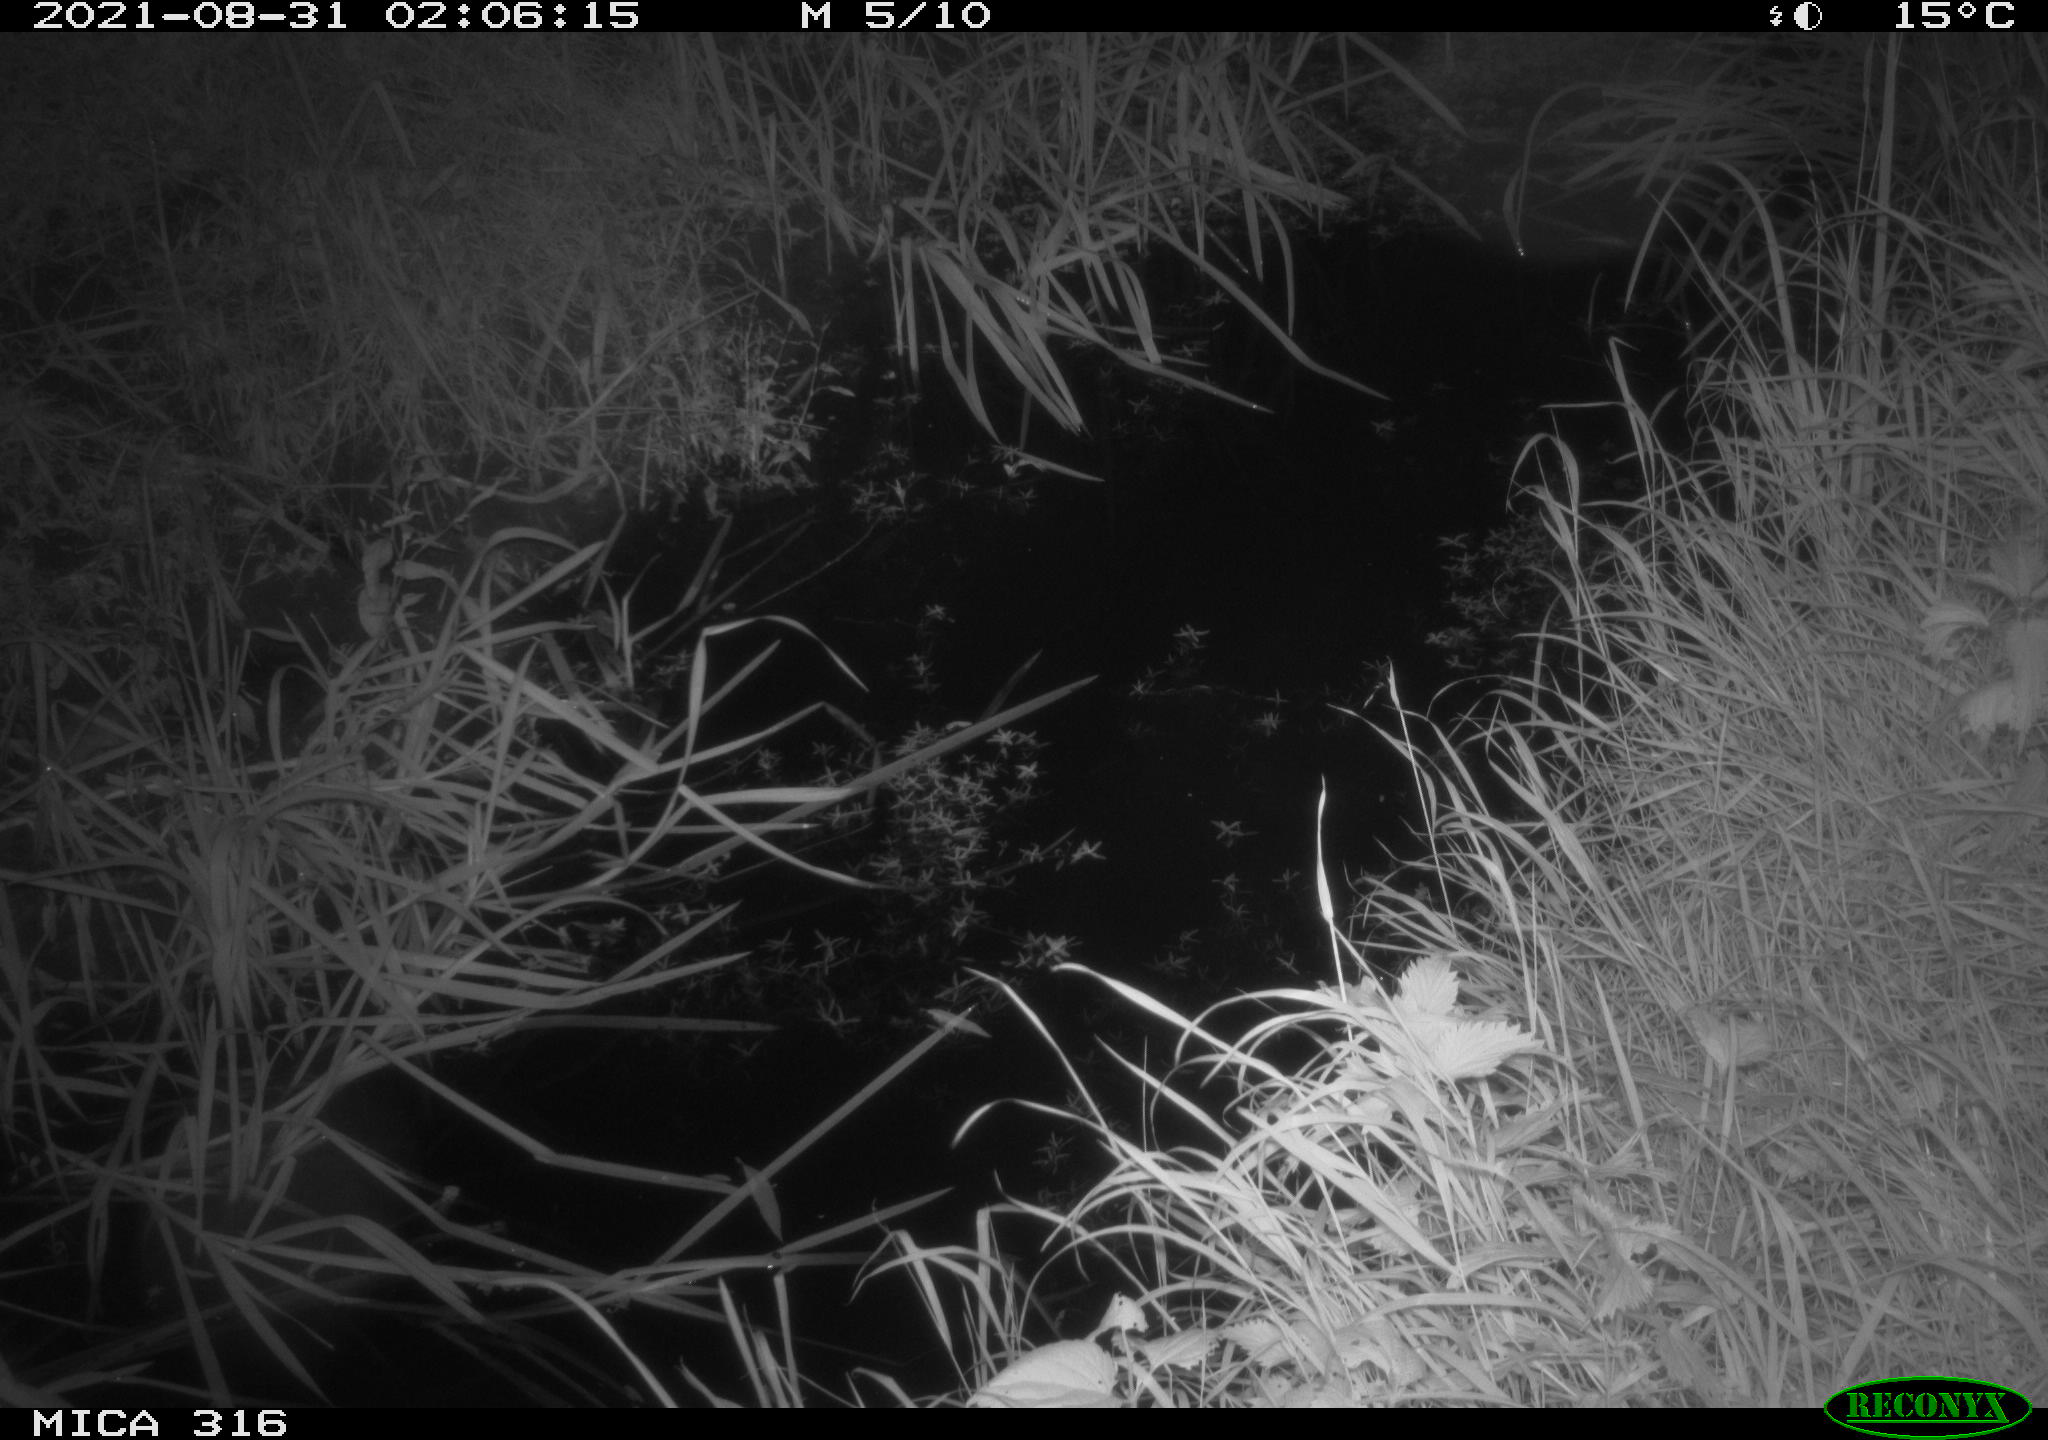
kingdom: Animalia
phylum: Chordata
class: Mammalia
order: Rodentia
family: Muridae
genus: Rattus
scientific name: Rattus norvegicus
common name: Brown rat
